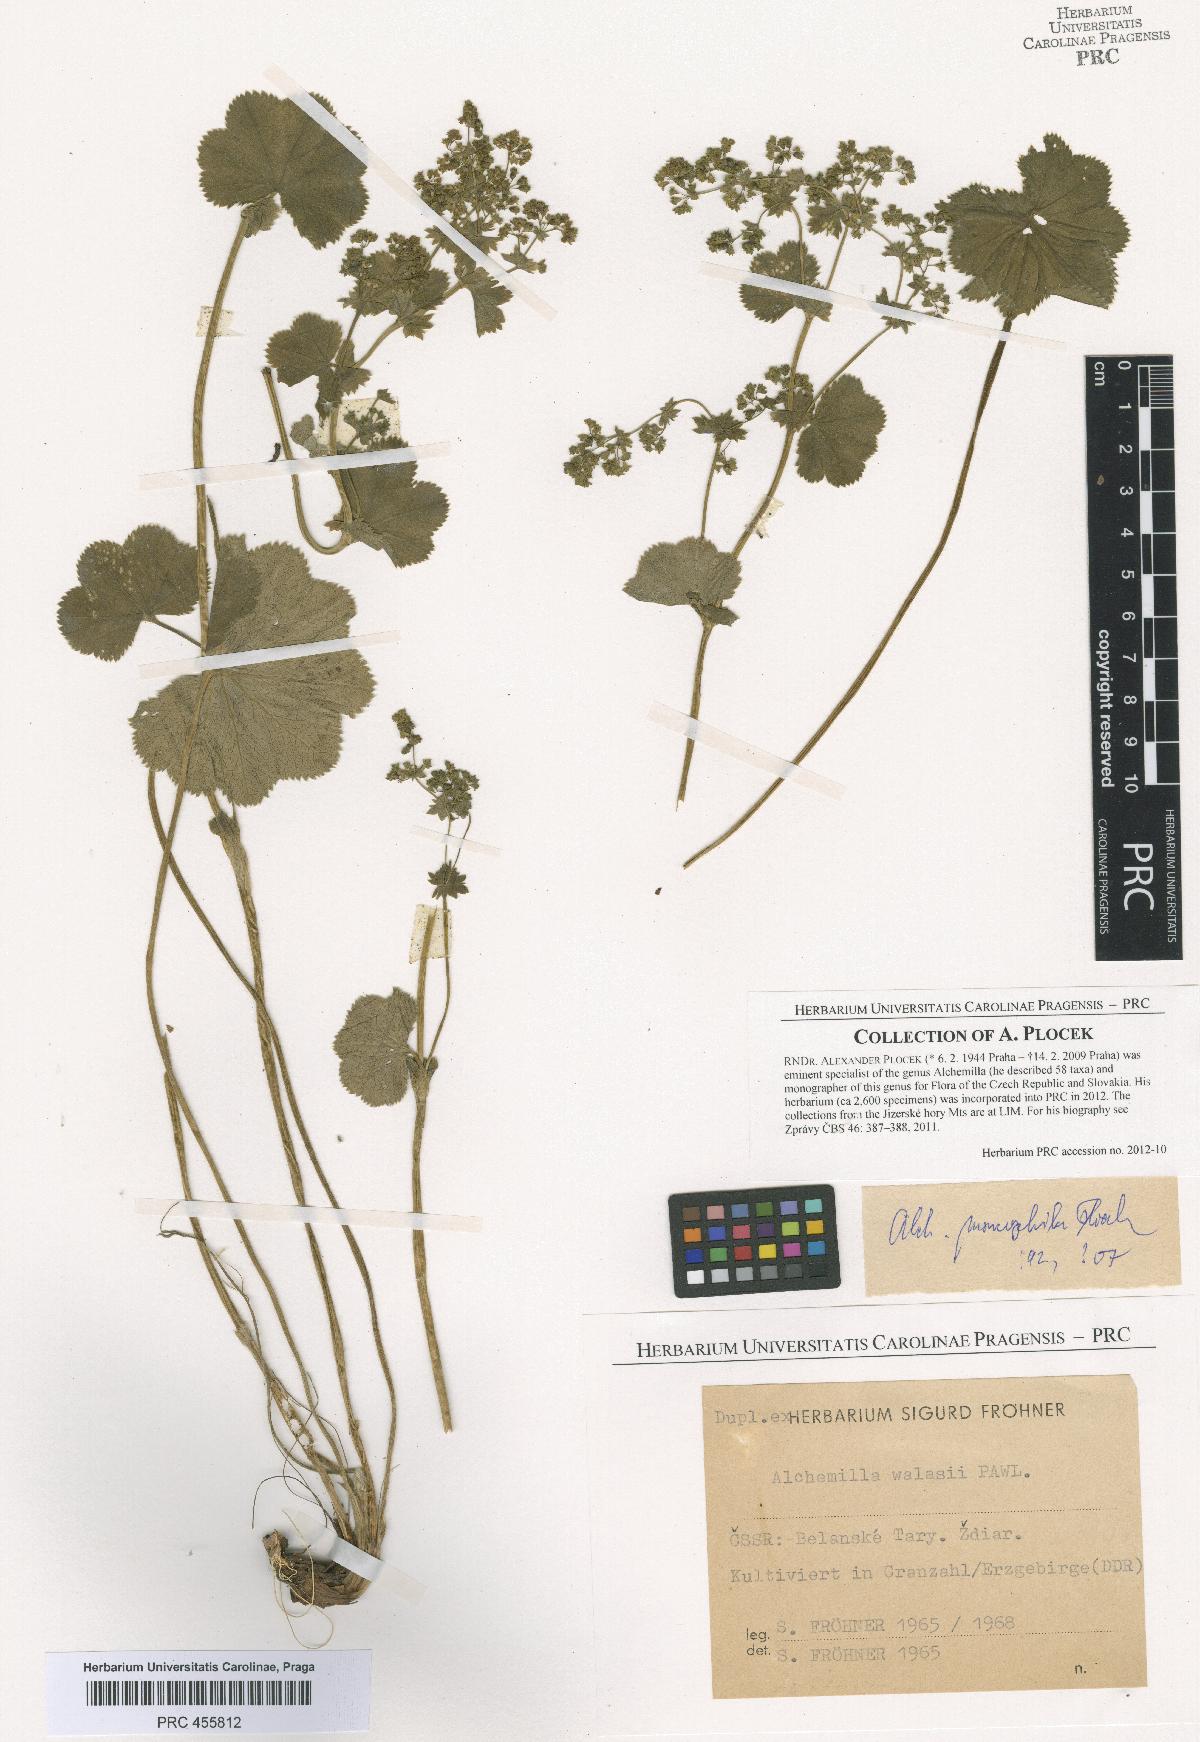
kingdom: Plantae
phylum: Tracheophyta
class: Magnoliopsida
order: Rosales
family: Rosaceae
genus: Alchemilla
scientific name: Alchemilla moncophila
